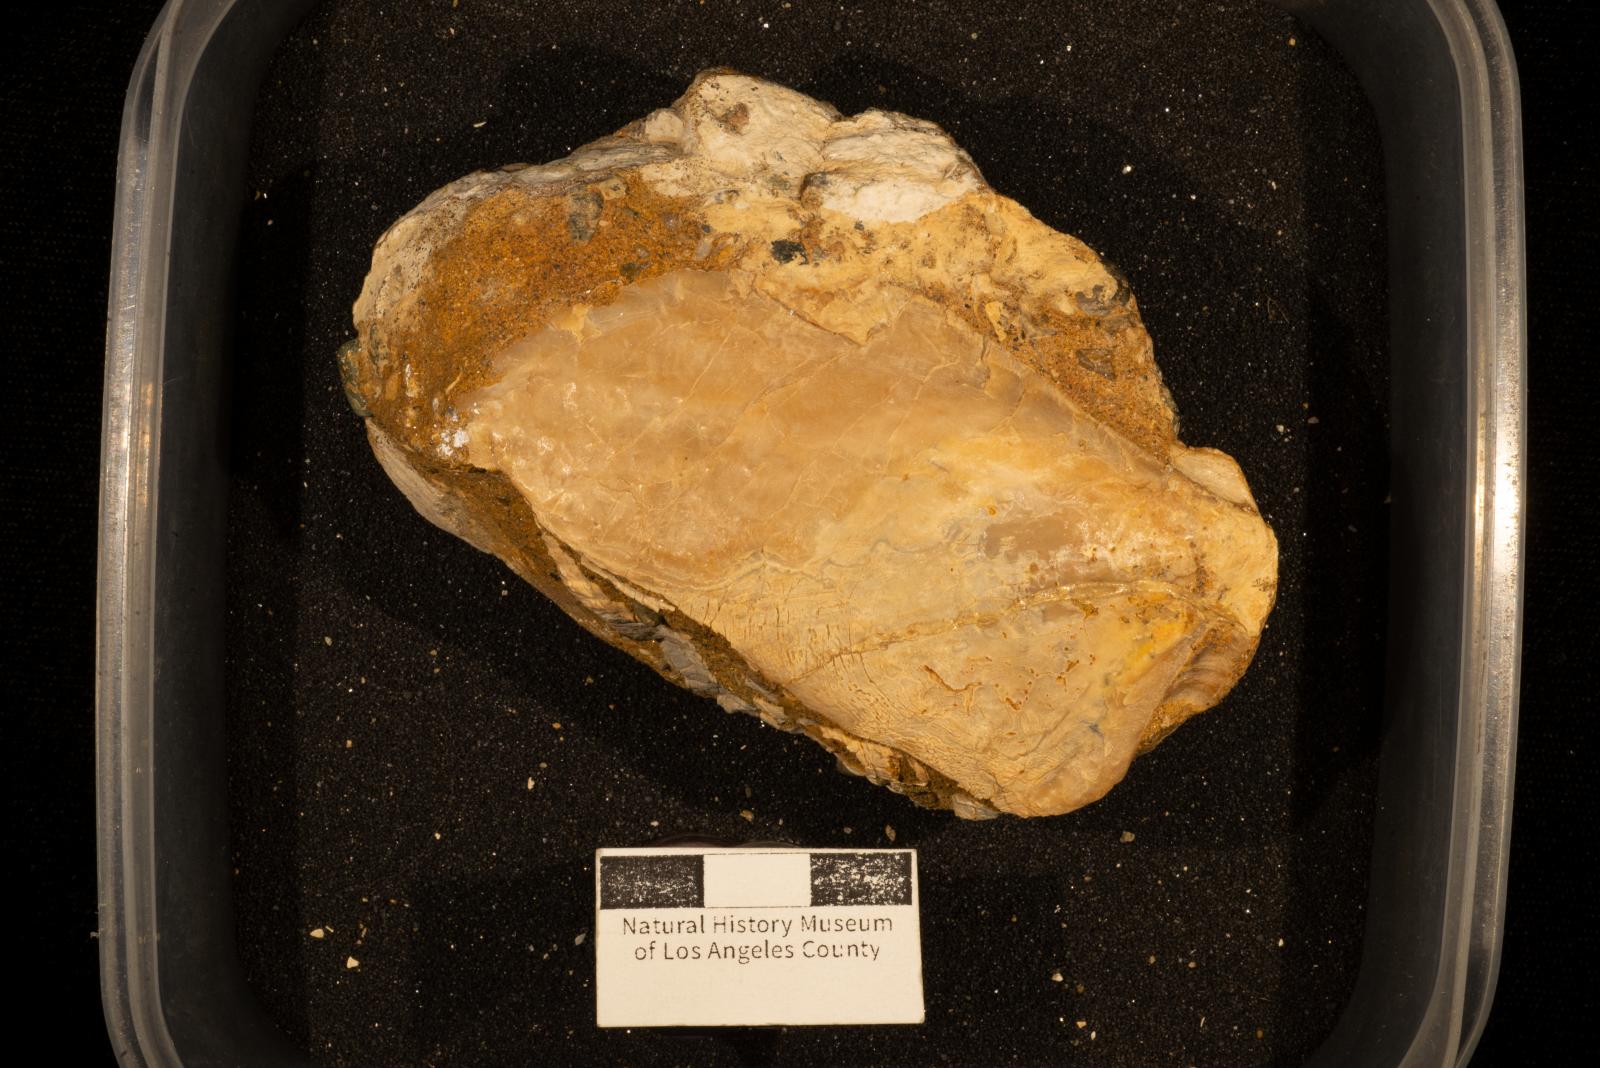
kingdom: Animalia
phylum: Mollusca
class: Bivalvia
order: Pectinida
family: Pectinidae
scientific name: Pectinidae
